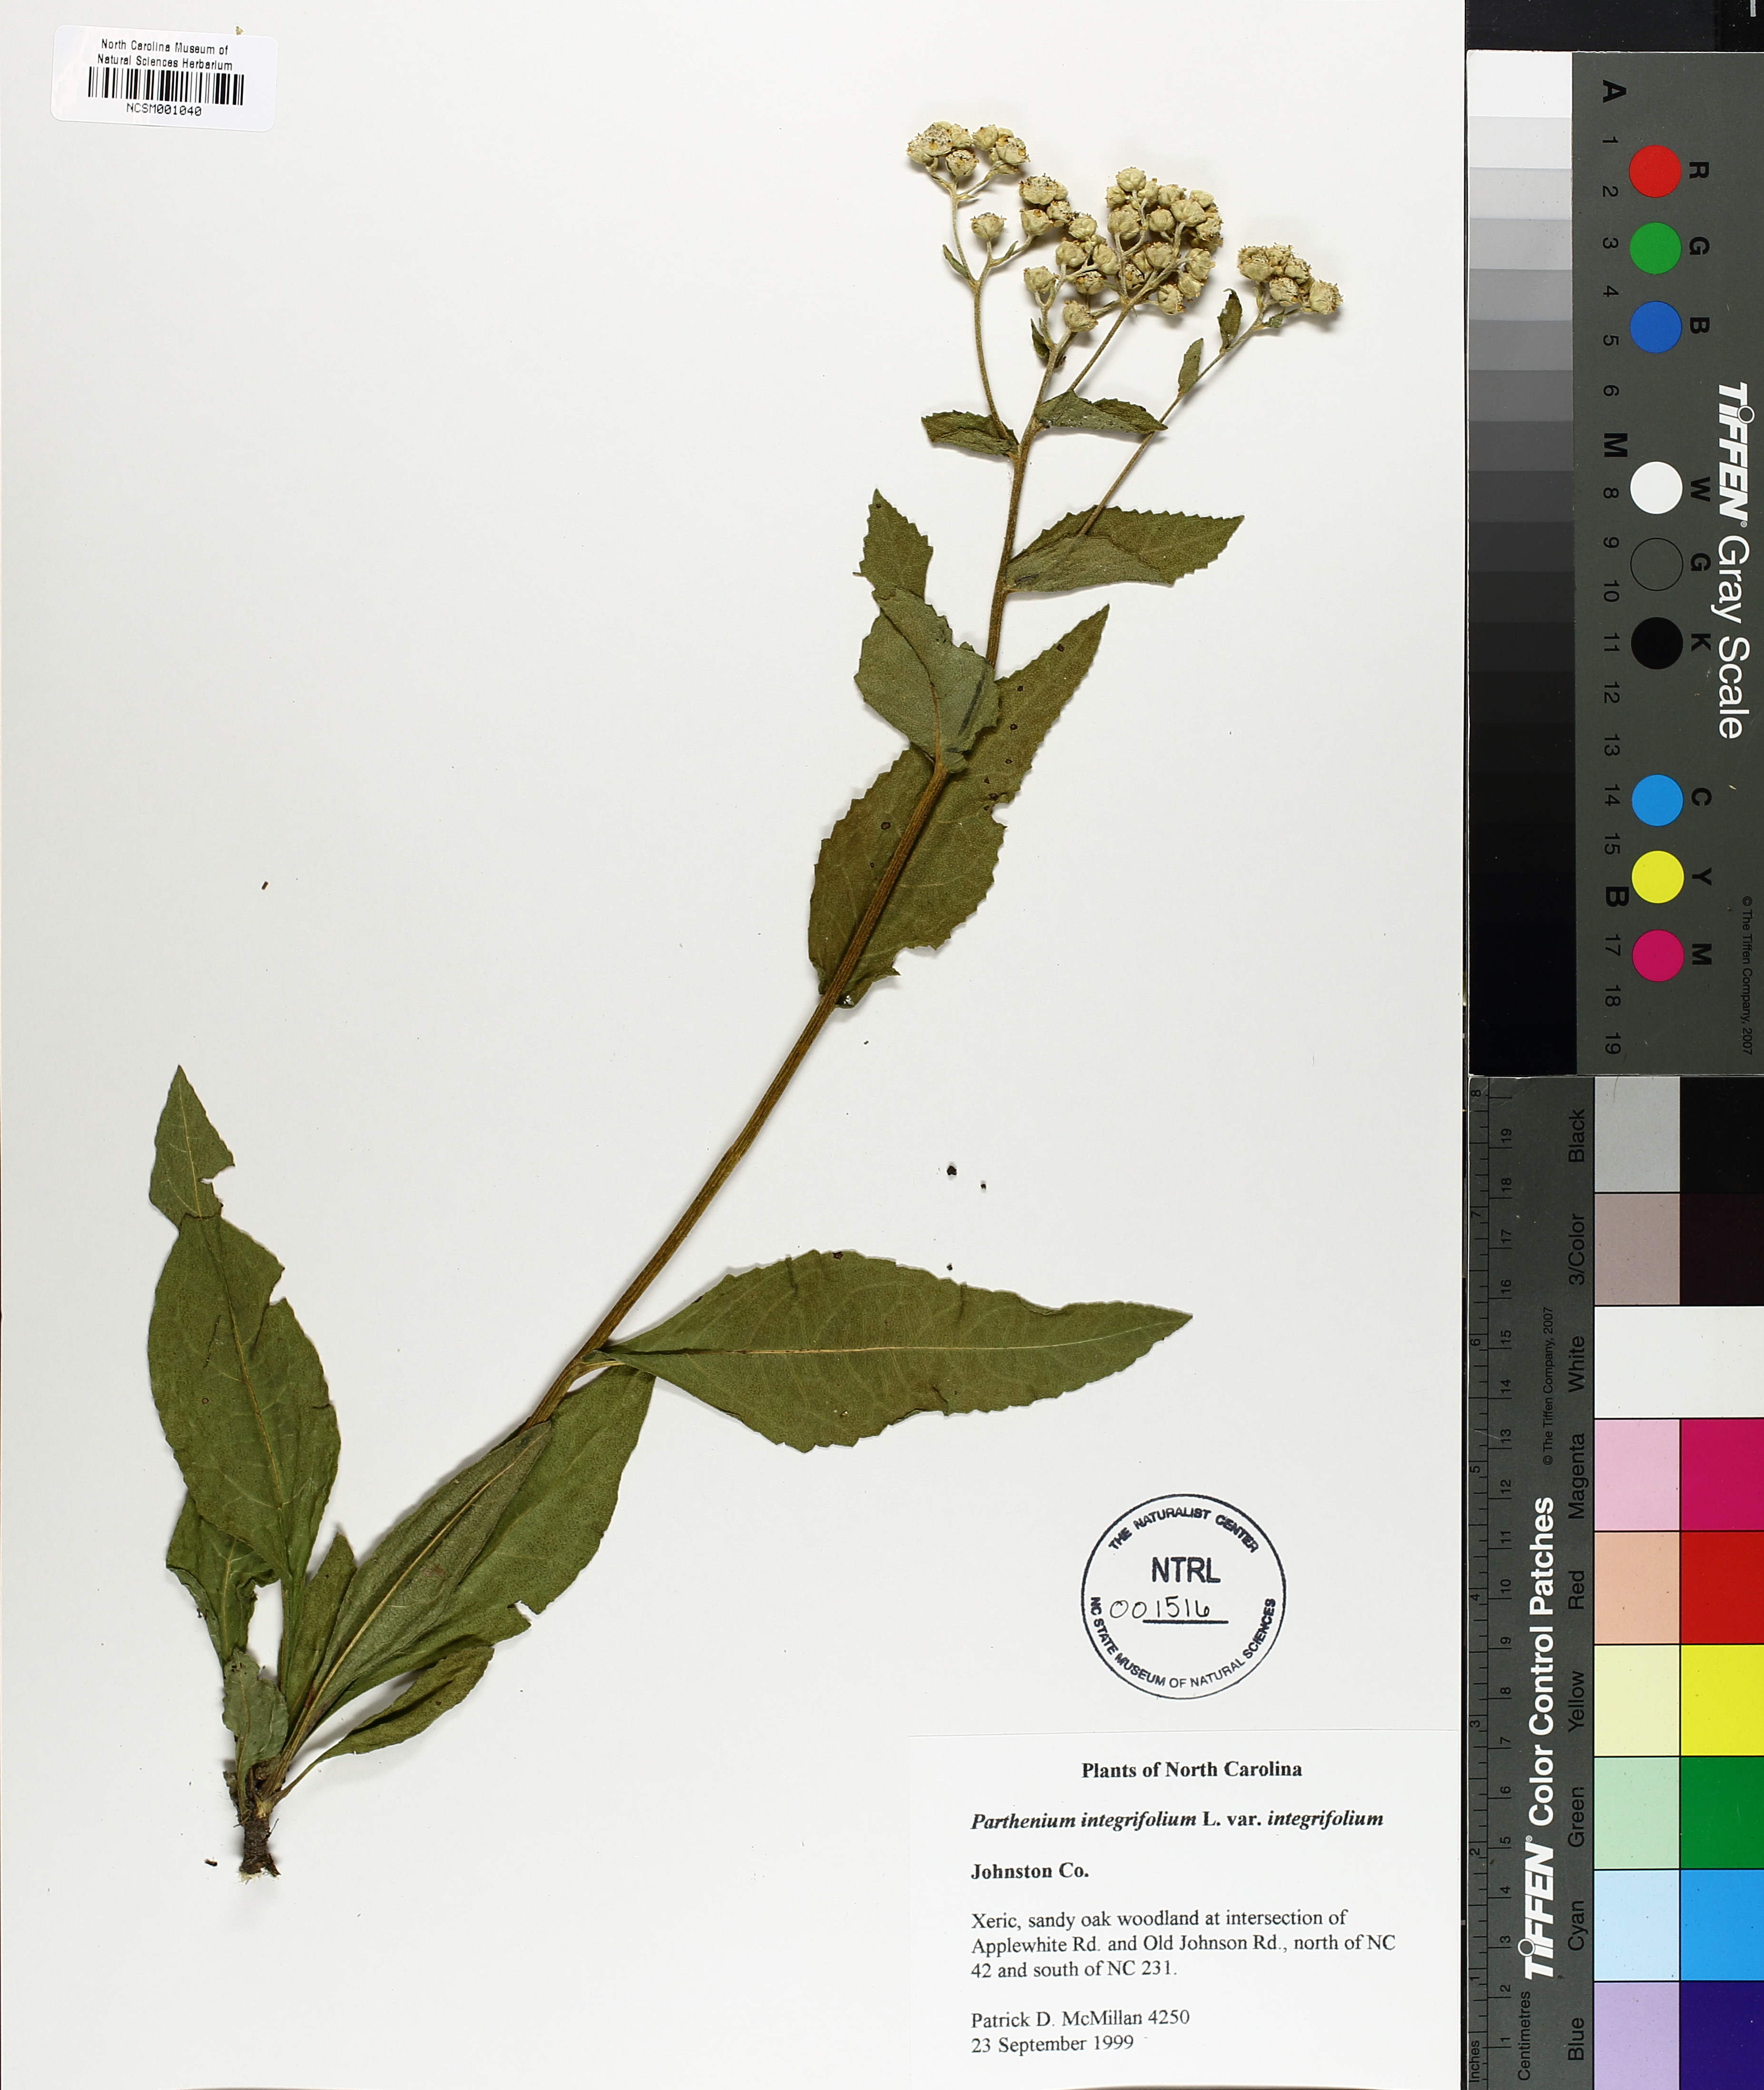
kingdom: Plantae
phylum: Tracheophyta
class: Magnoliopsida
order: Asterales
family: Asteraceae
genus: Parthenium
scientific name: Parthenium integrifolium
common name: American feverfew
